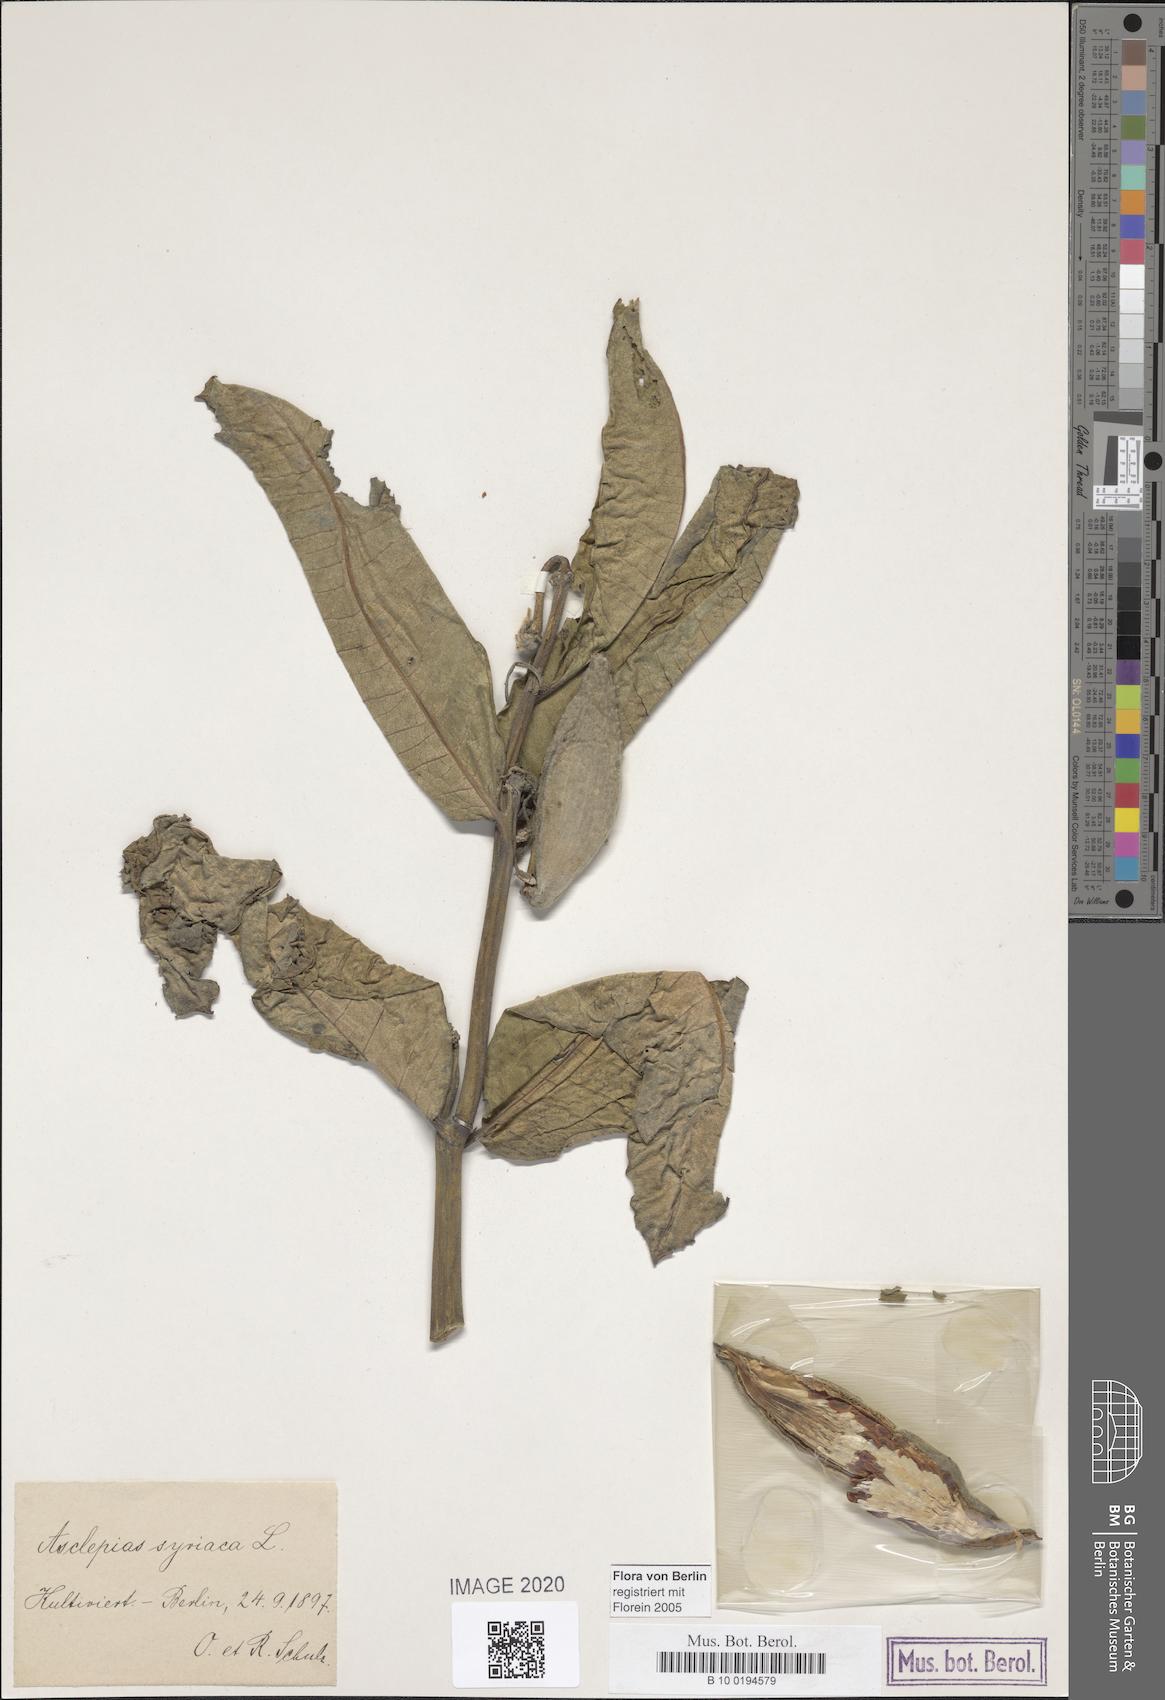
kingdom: Plantae
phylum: Tracheophyta
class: Magnoliopsida
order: Gentianales
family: Apocynaceae
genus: Asclepias
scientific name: Asclepias syriaca
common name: Common milkweed
